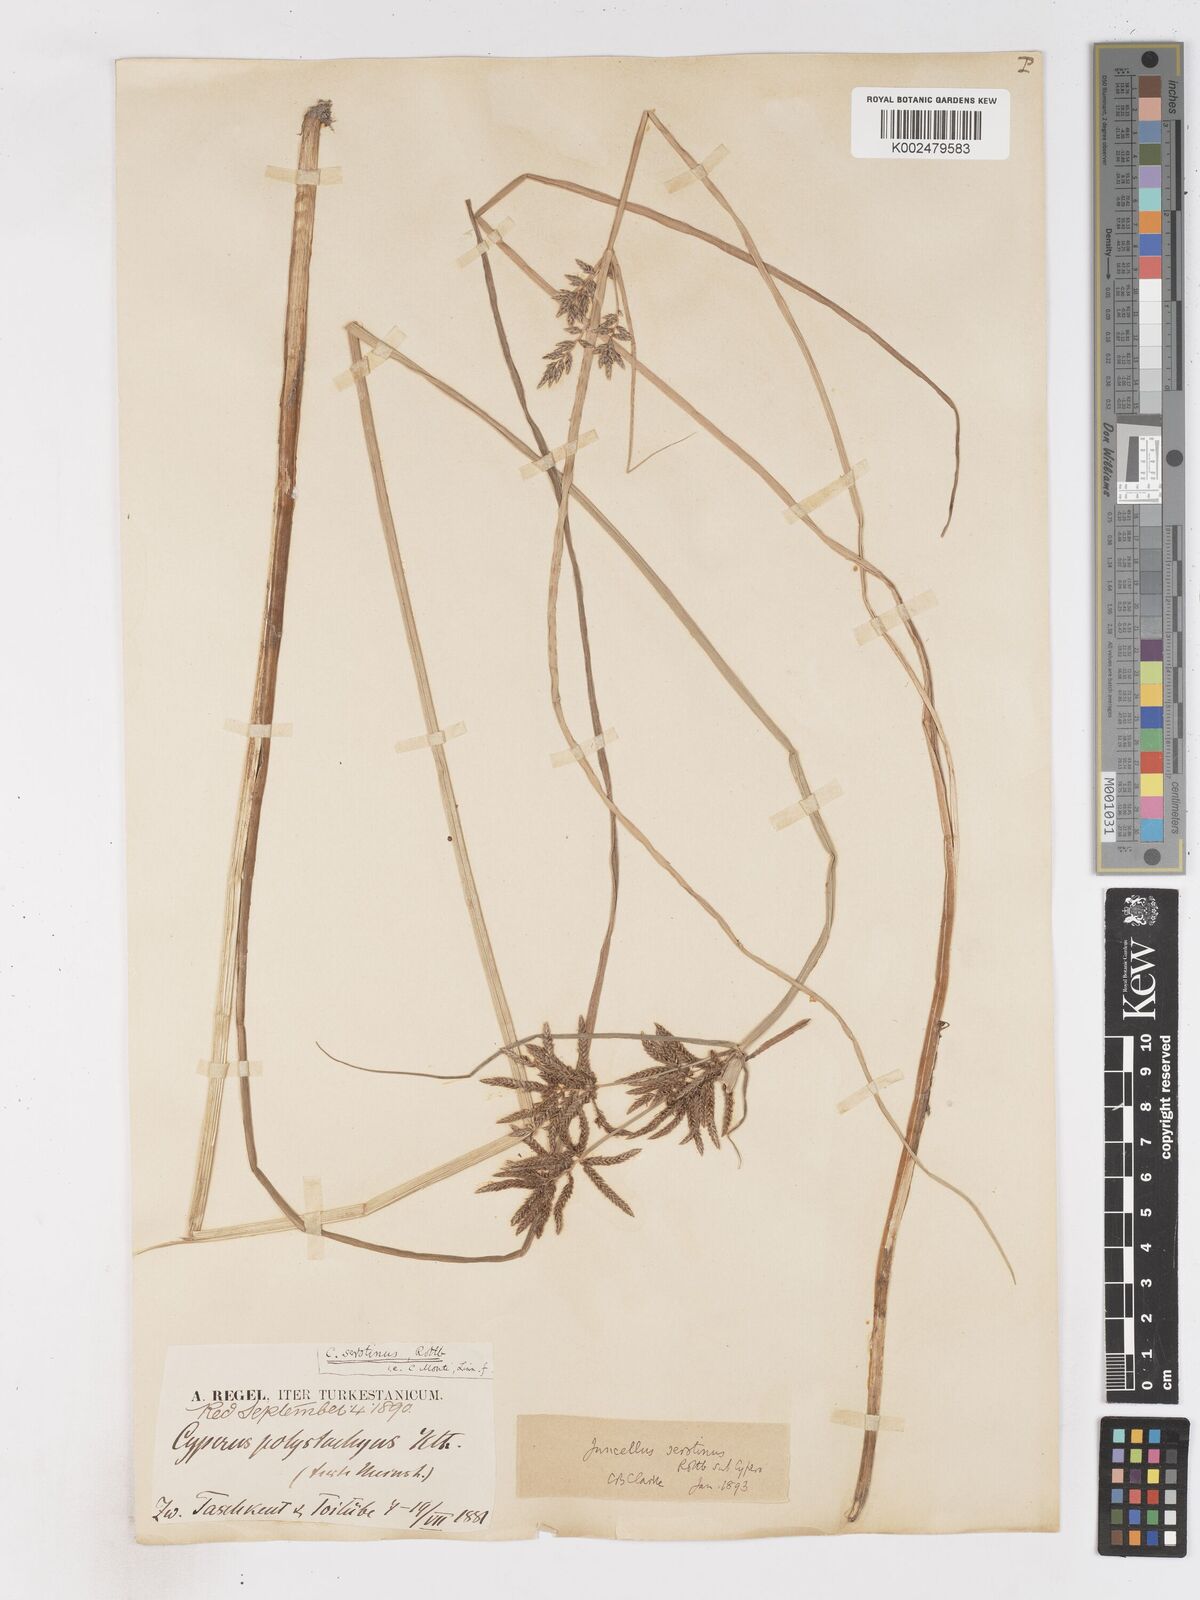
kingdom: Plantae
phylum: Tracheophyta
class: Liliopsida
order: Poales
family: Cyperaceae
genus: Cyperus
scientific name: Cyperus serotinus
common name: Tidalmarsh flatsedge
